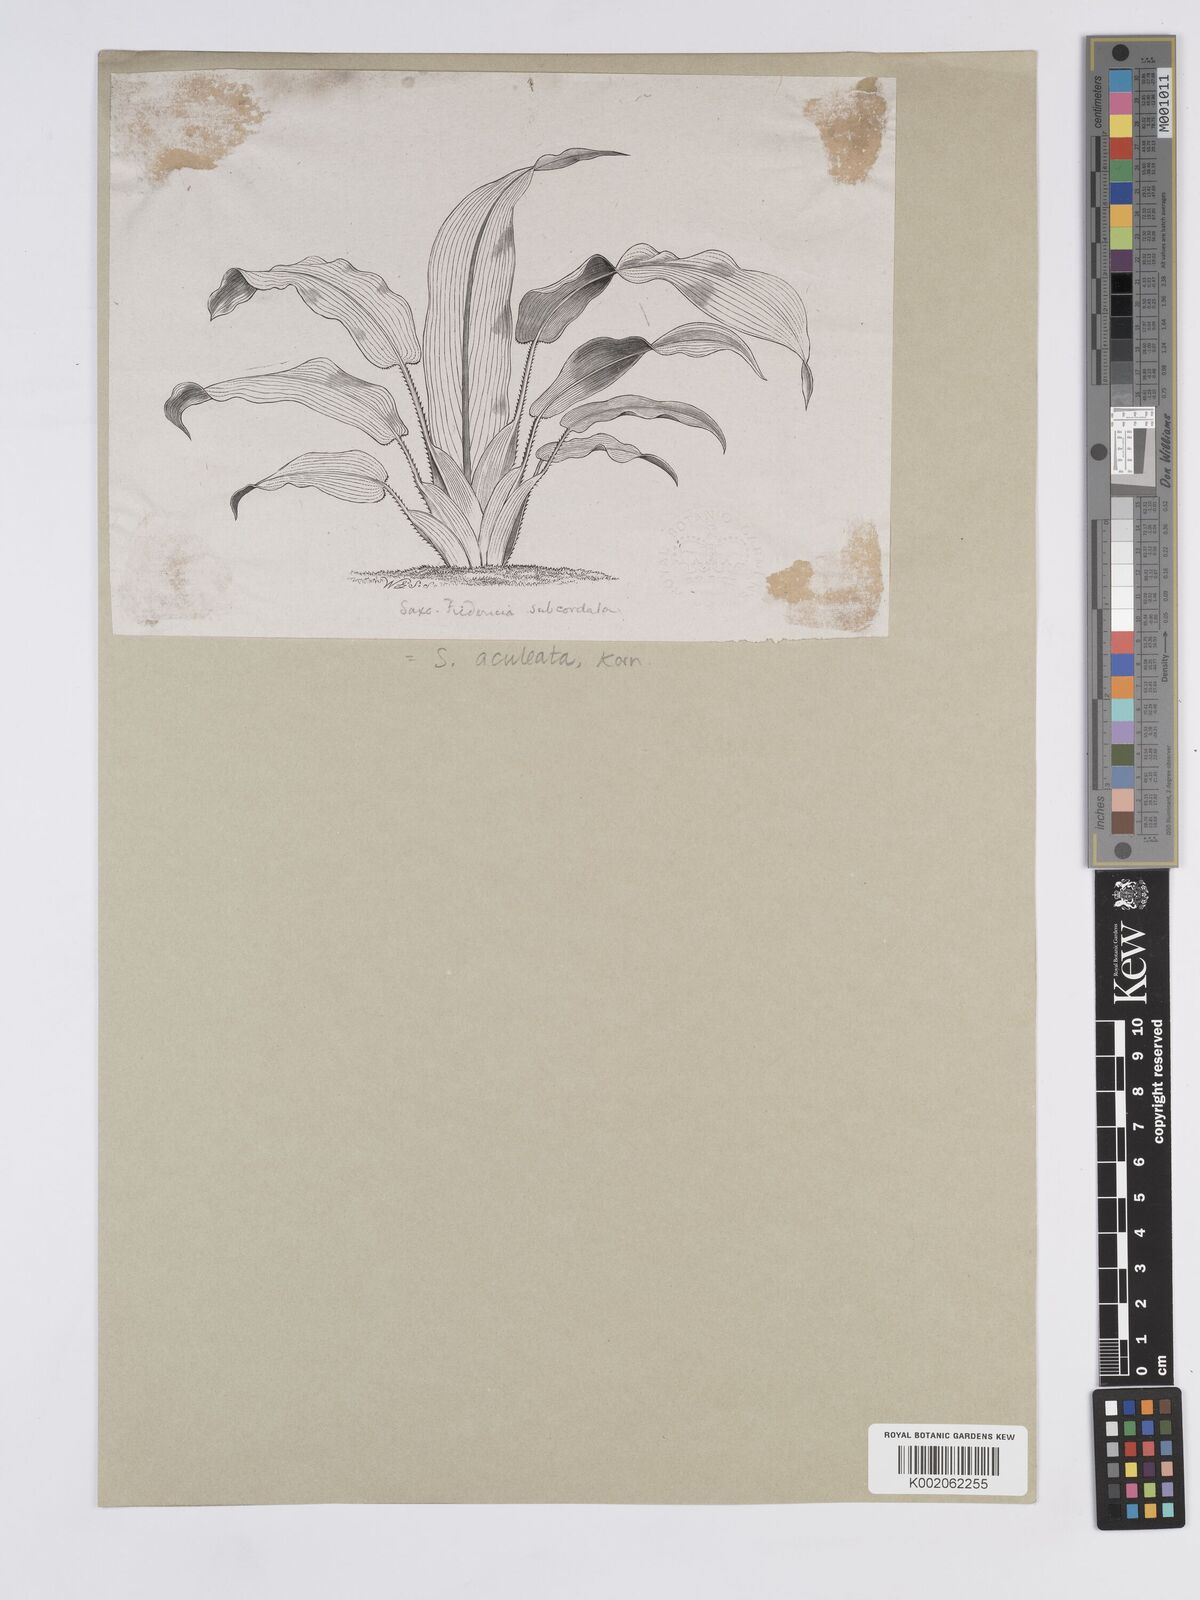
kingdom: Plantae
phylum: Tracheophyta
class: Liliopsida
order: Poales
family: Rapateaceae
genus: Saxofridericia
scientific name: Saxofridericia
